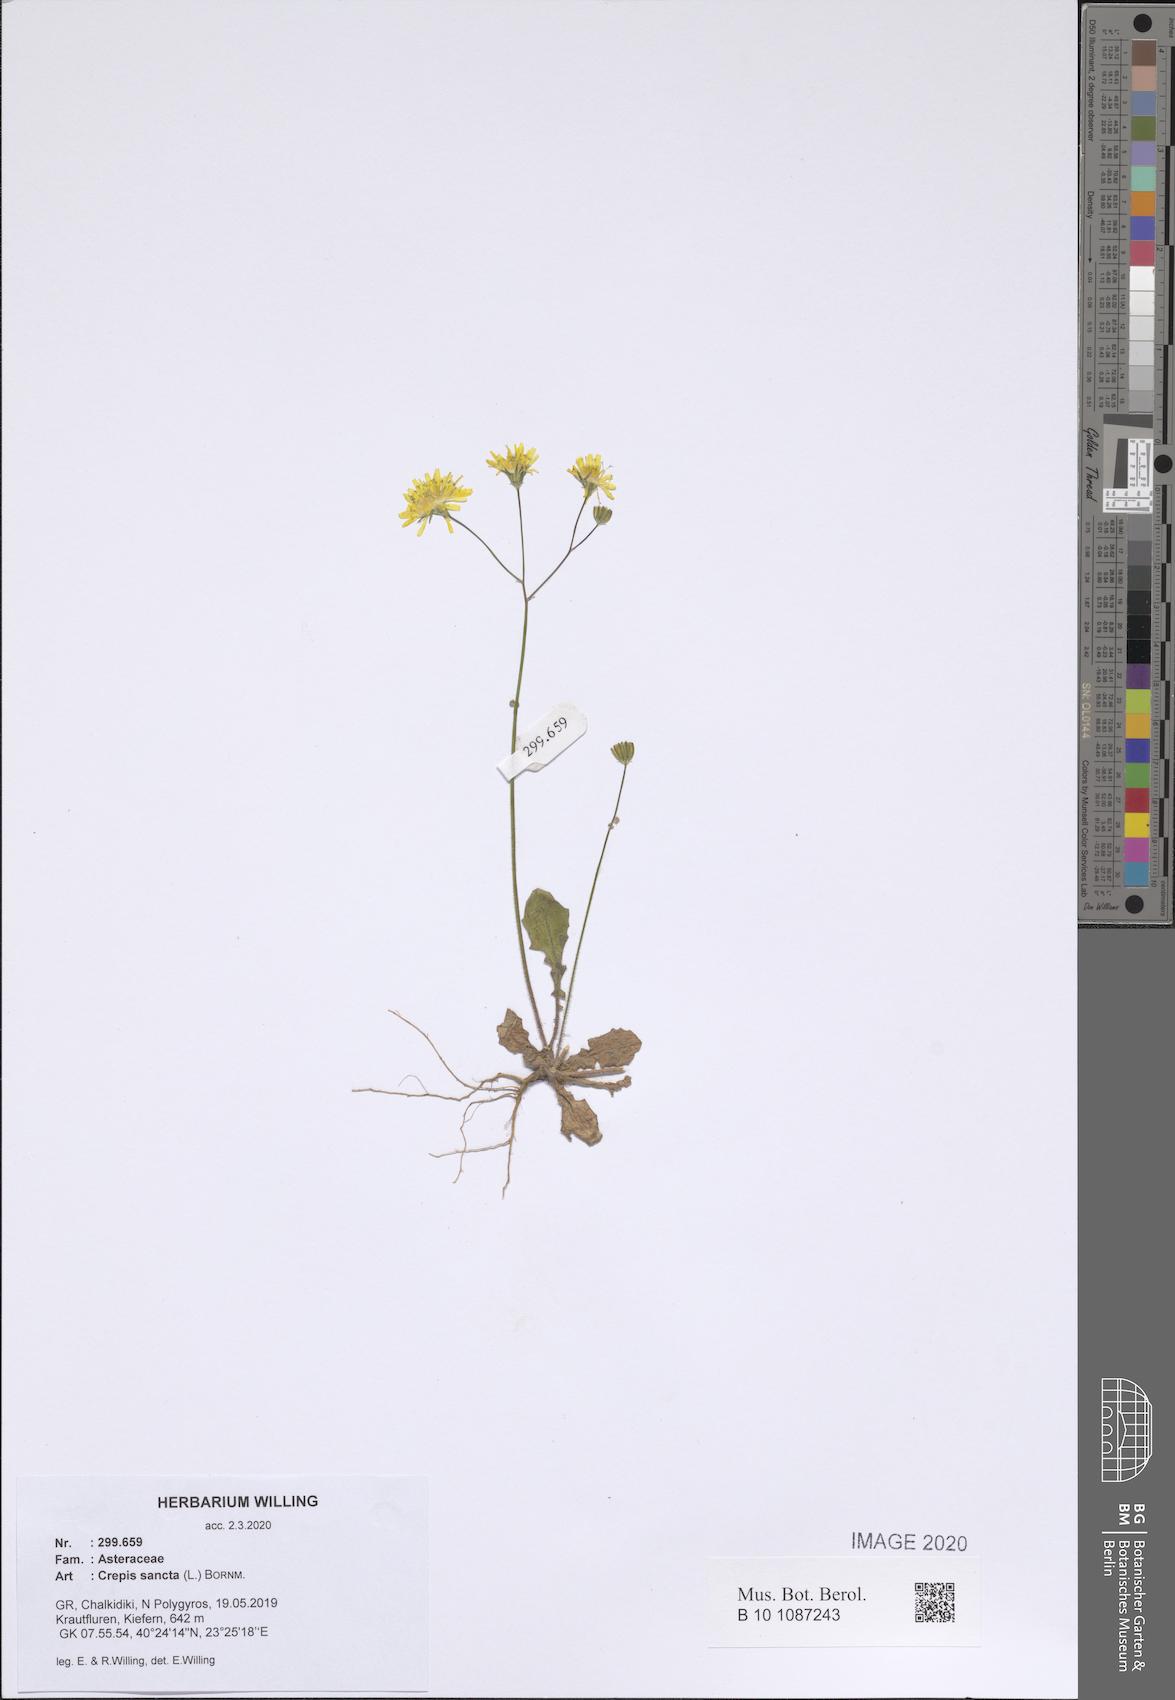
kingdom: Plantae
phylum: Tracheophyta
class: Magnoliopsida
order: Asterales
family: Asteraceae
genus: Crepis
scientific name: Crepis sancta
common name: Hawk's-beard
